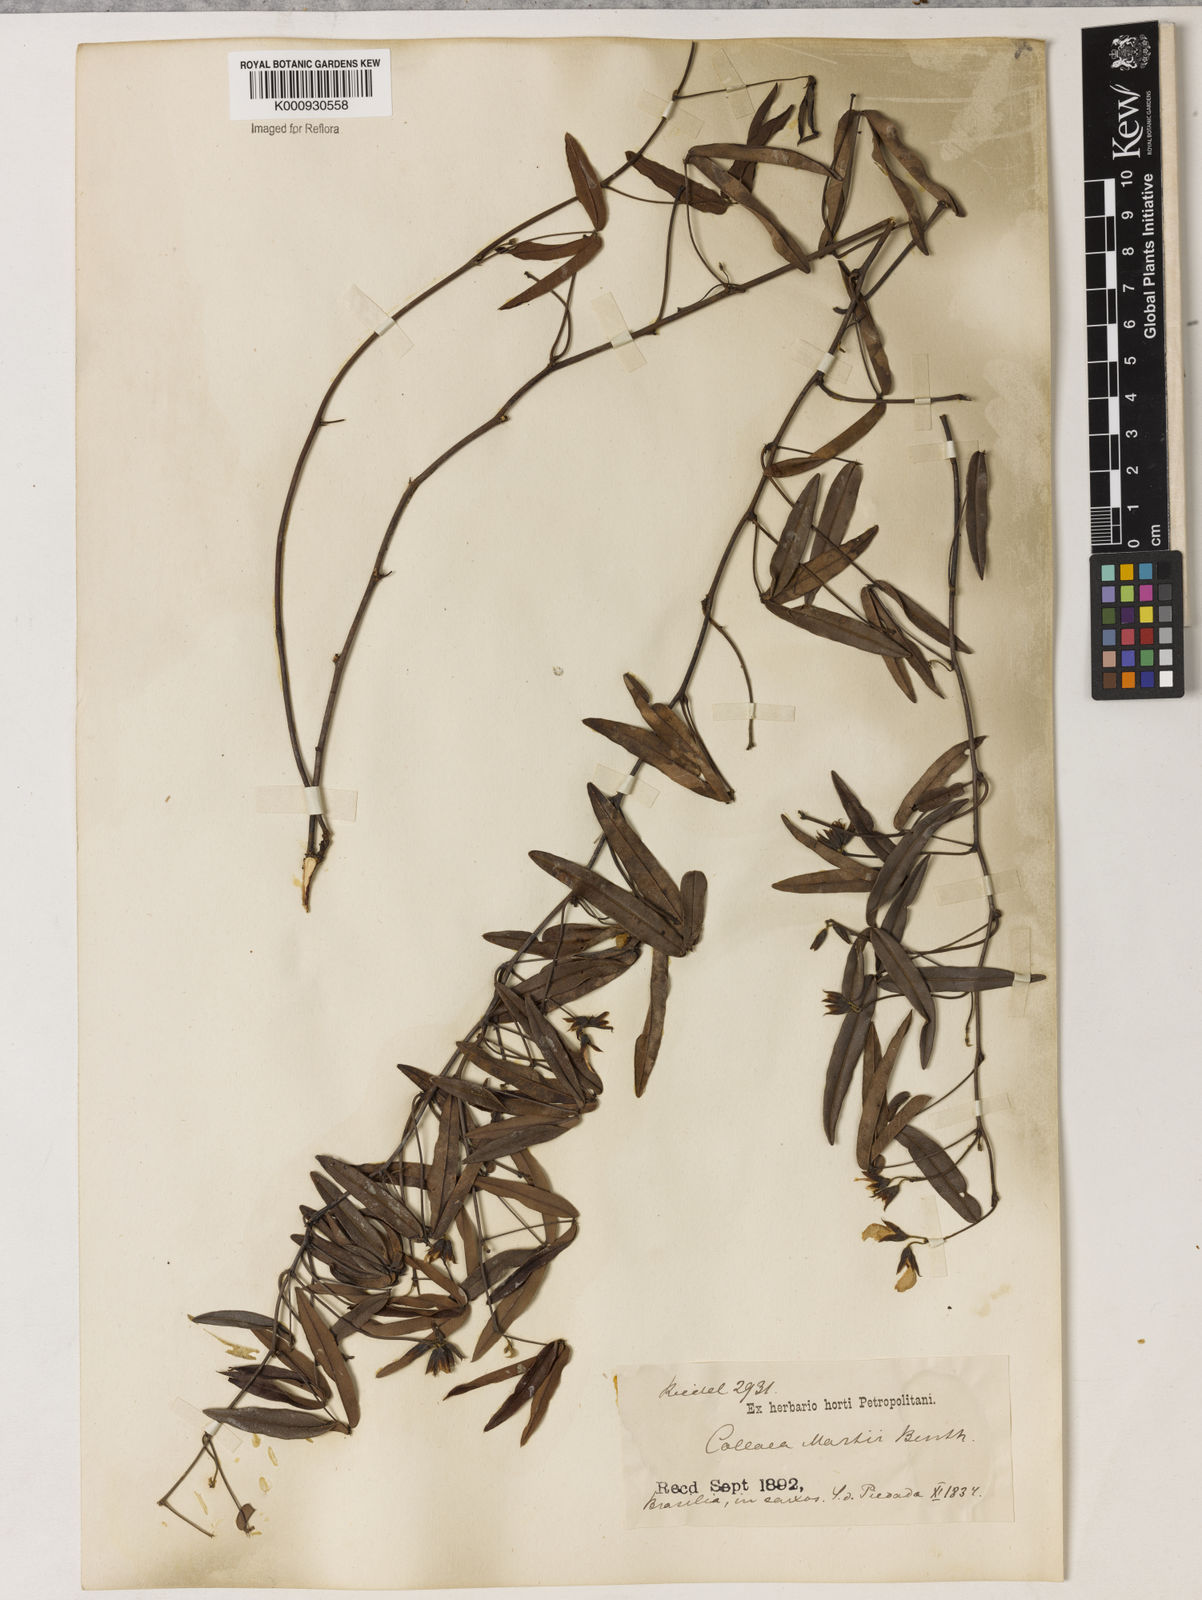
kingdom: Plantae
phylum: Tracheophyta
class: Magnoliopsida
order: Fabales
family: Fabaceae
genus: Betencourtia
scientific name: Betencourtia martii
